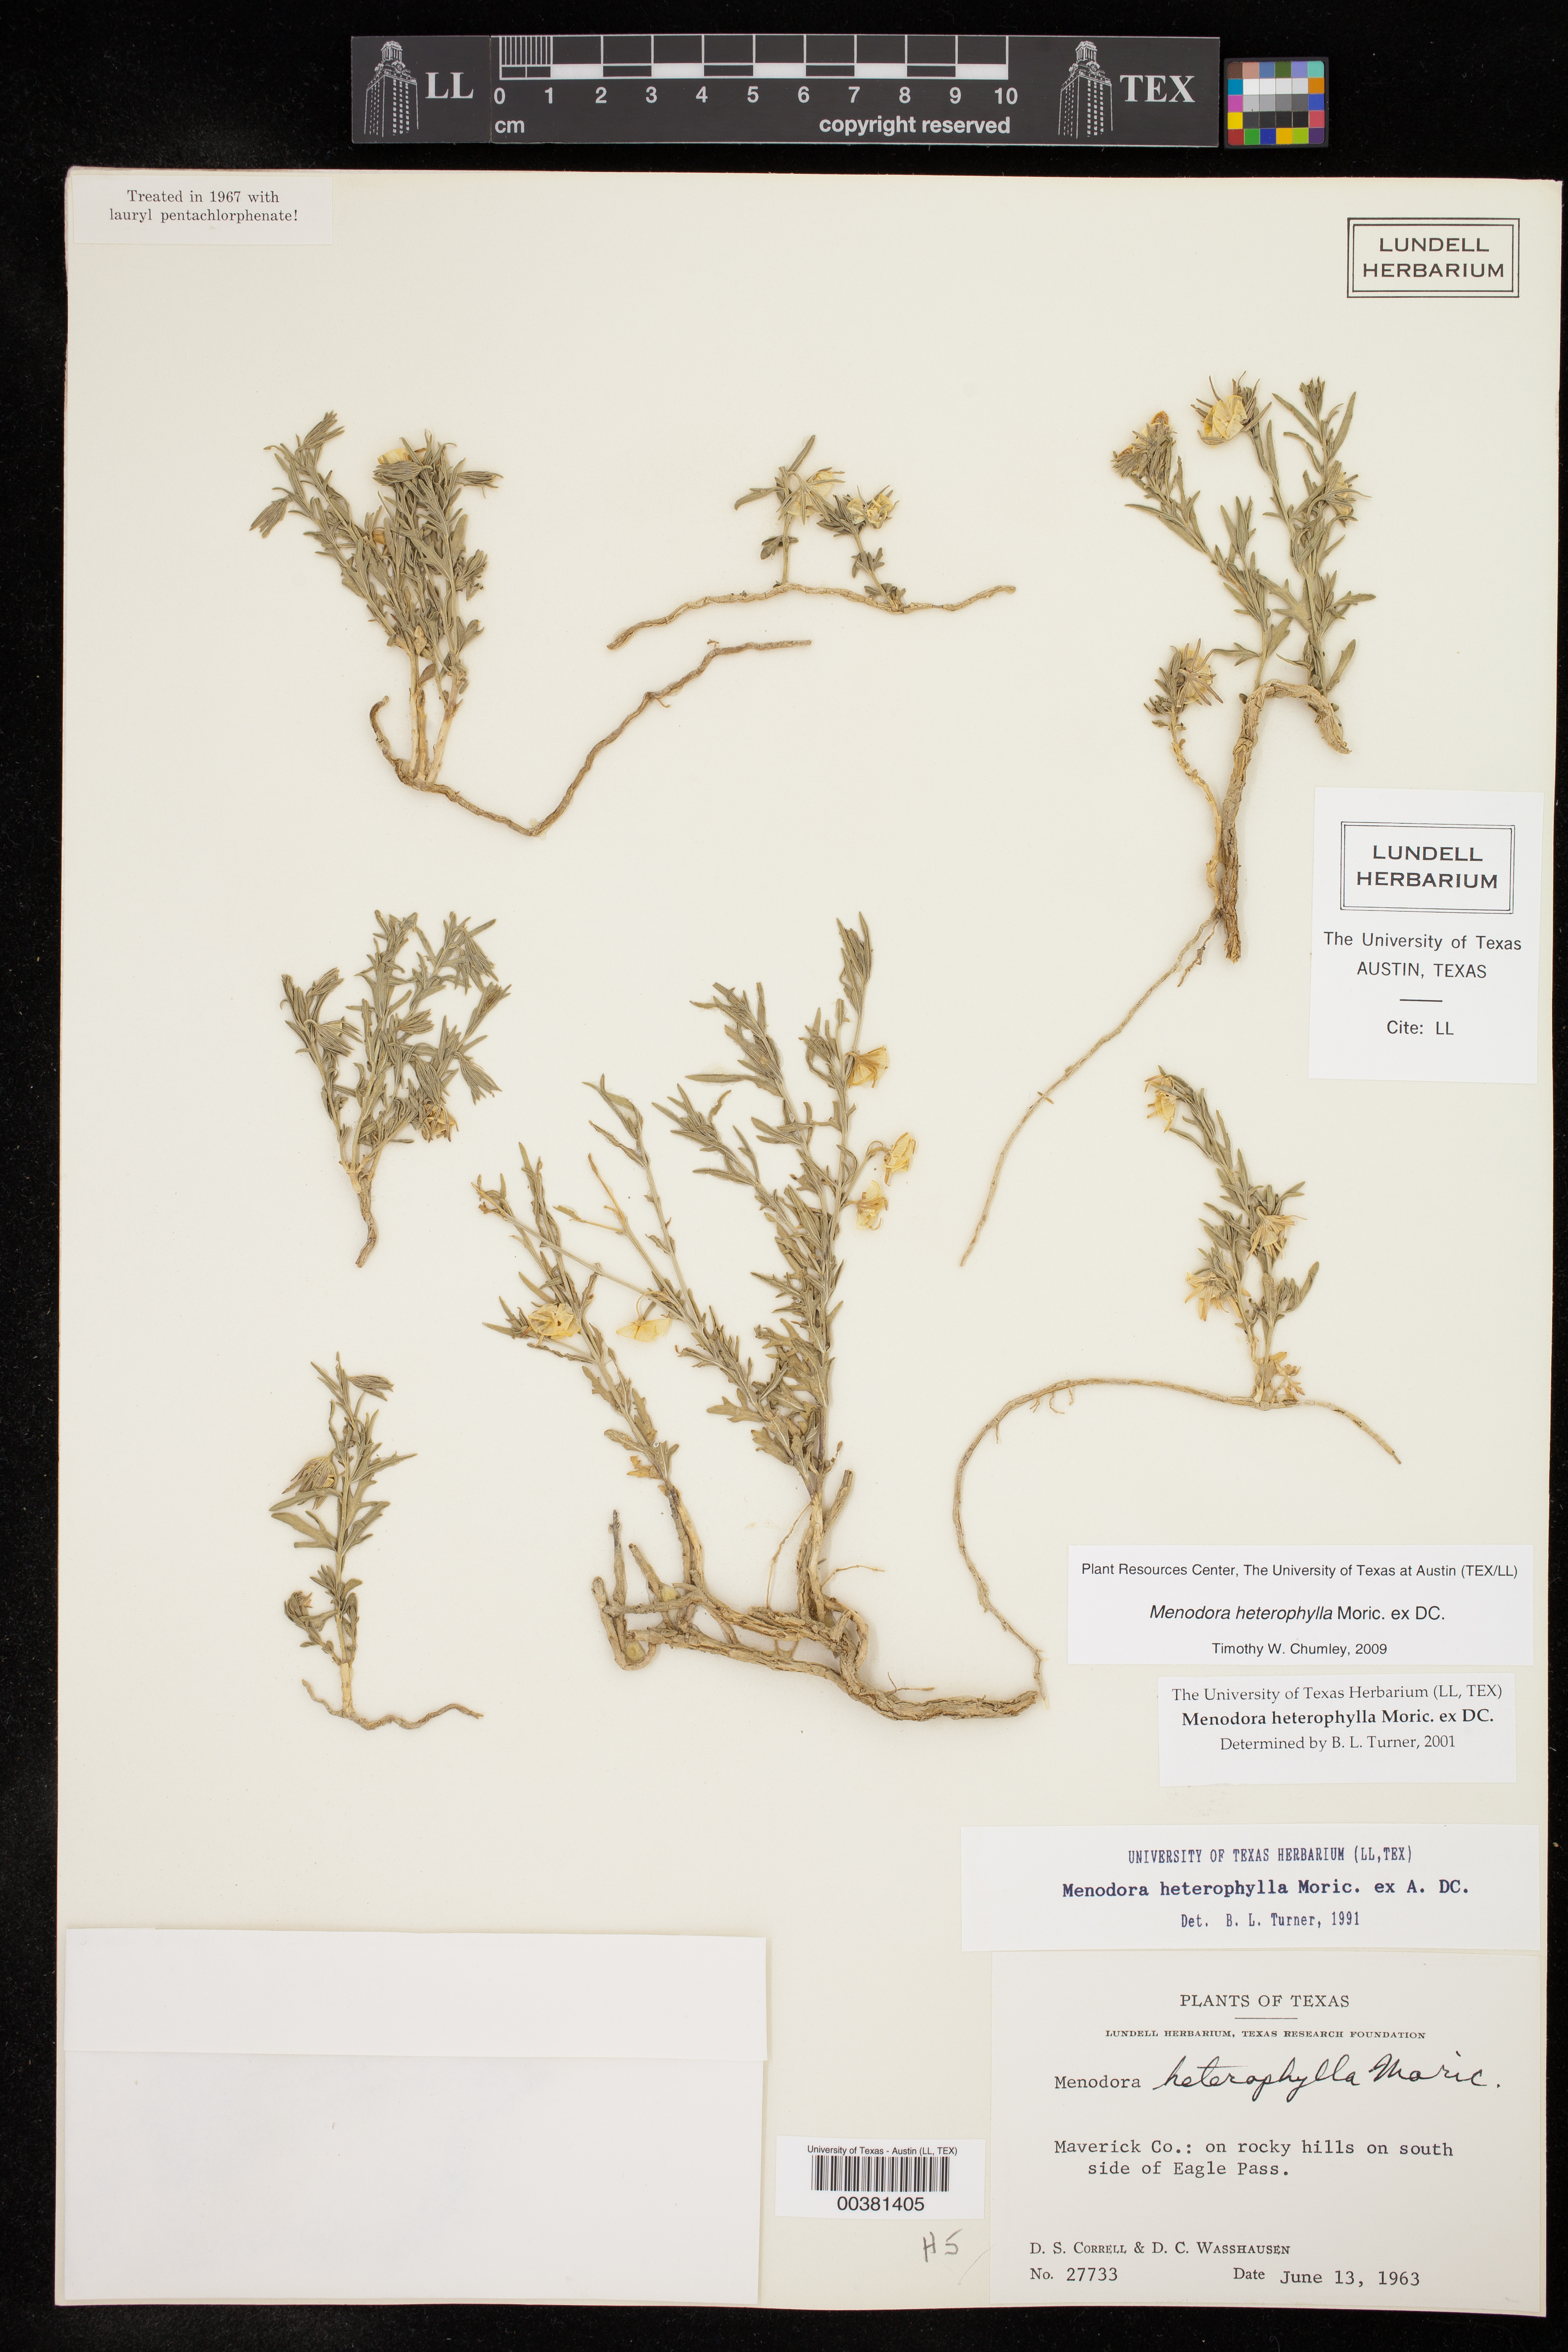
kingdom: Plantae
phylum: Tracheophyta
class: Magnoliopsida
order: Lamiales
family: Oleaceae
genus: Menodora
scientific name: Menodora heterophylla
